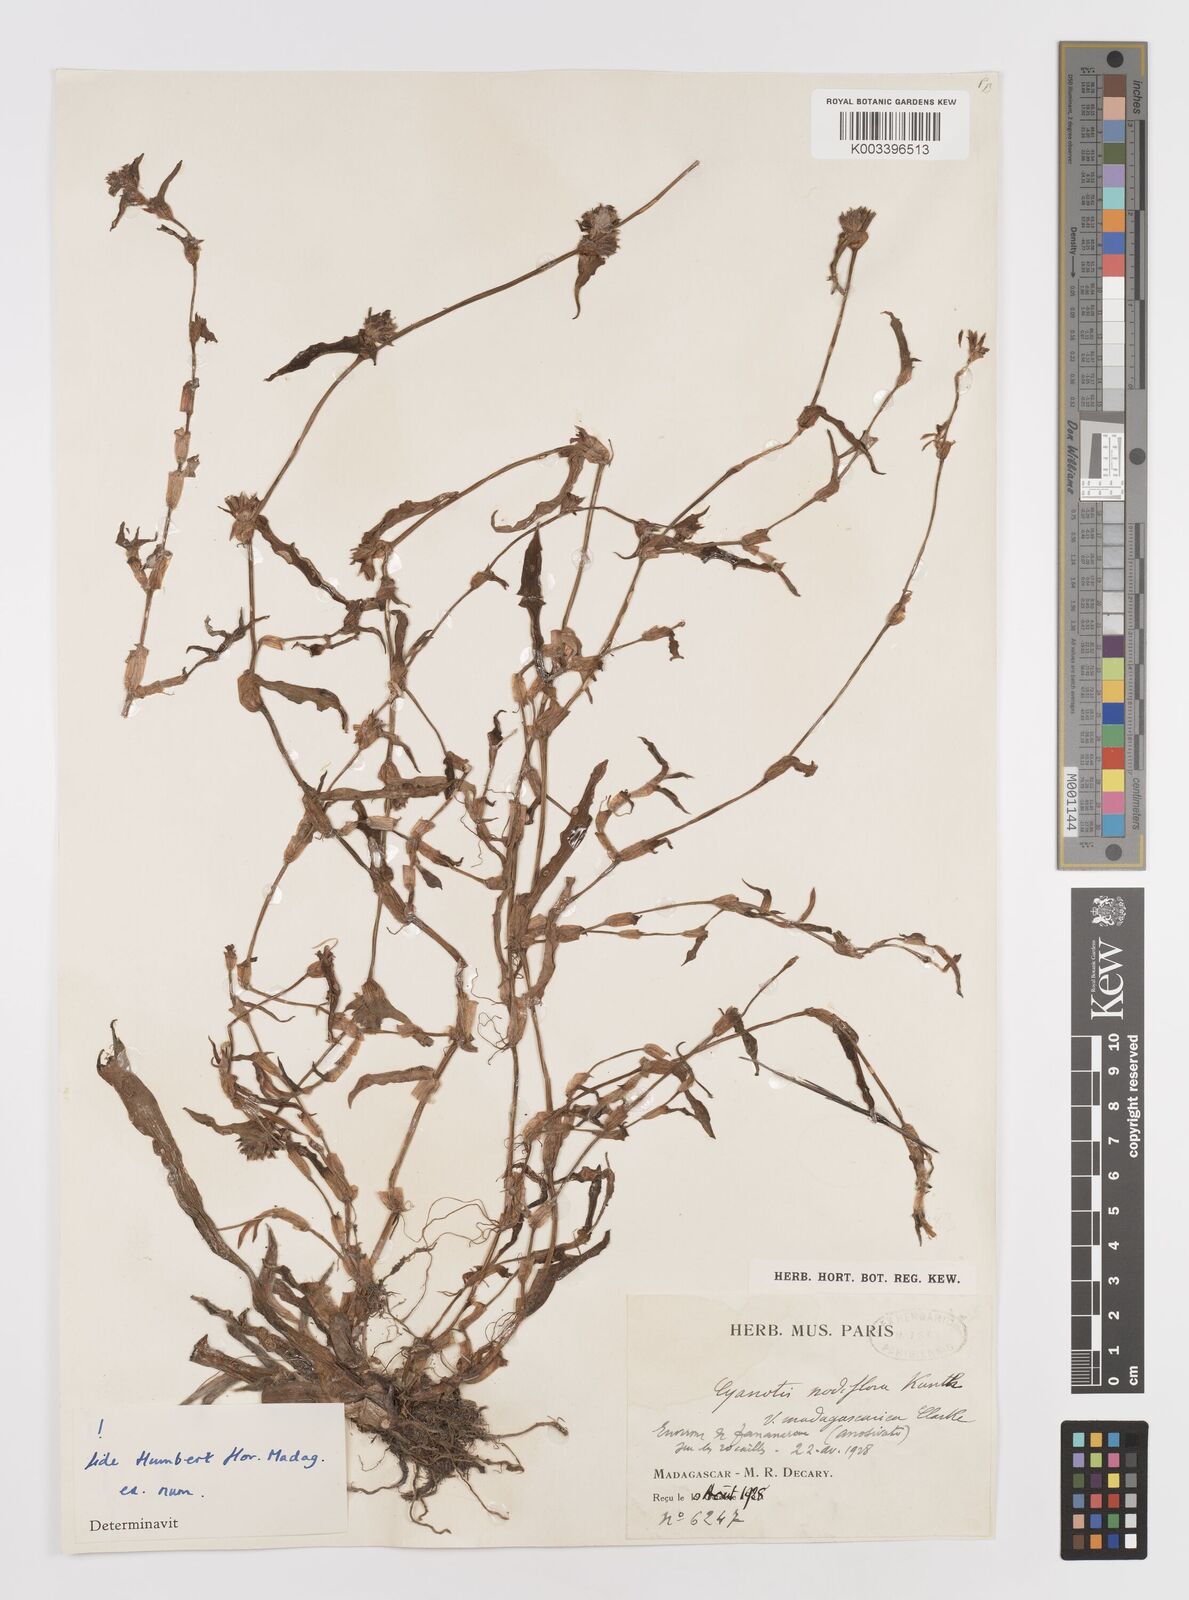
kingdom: Plantae
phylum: Tracheophyta
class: Liliopsida
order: Commelinales
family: Commelinaceae
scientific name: Commelinaceae
